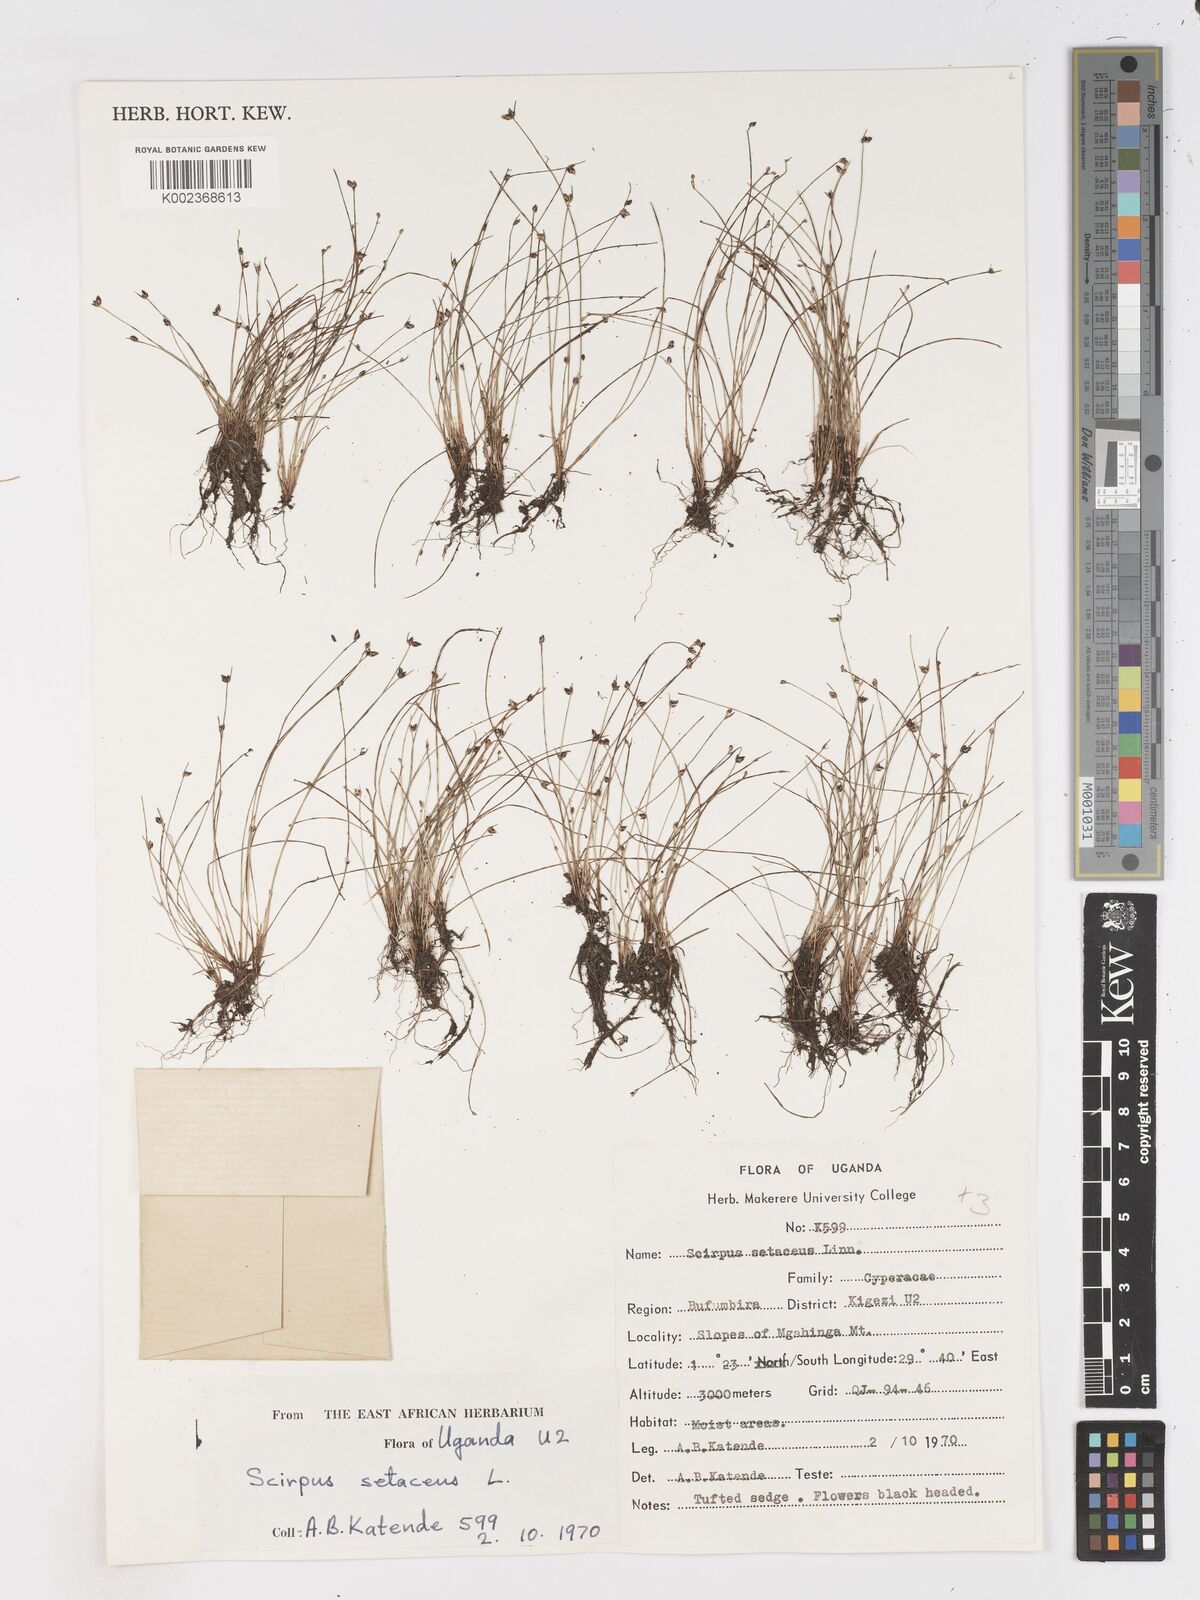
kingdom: Plantae
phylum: Tracheophyta
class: Liliopsida
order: Poales
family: Cyperaceae
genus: Isolepis
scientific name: Isolepis setacea
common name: Bristle club-rush
